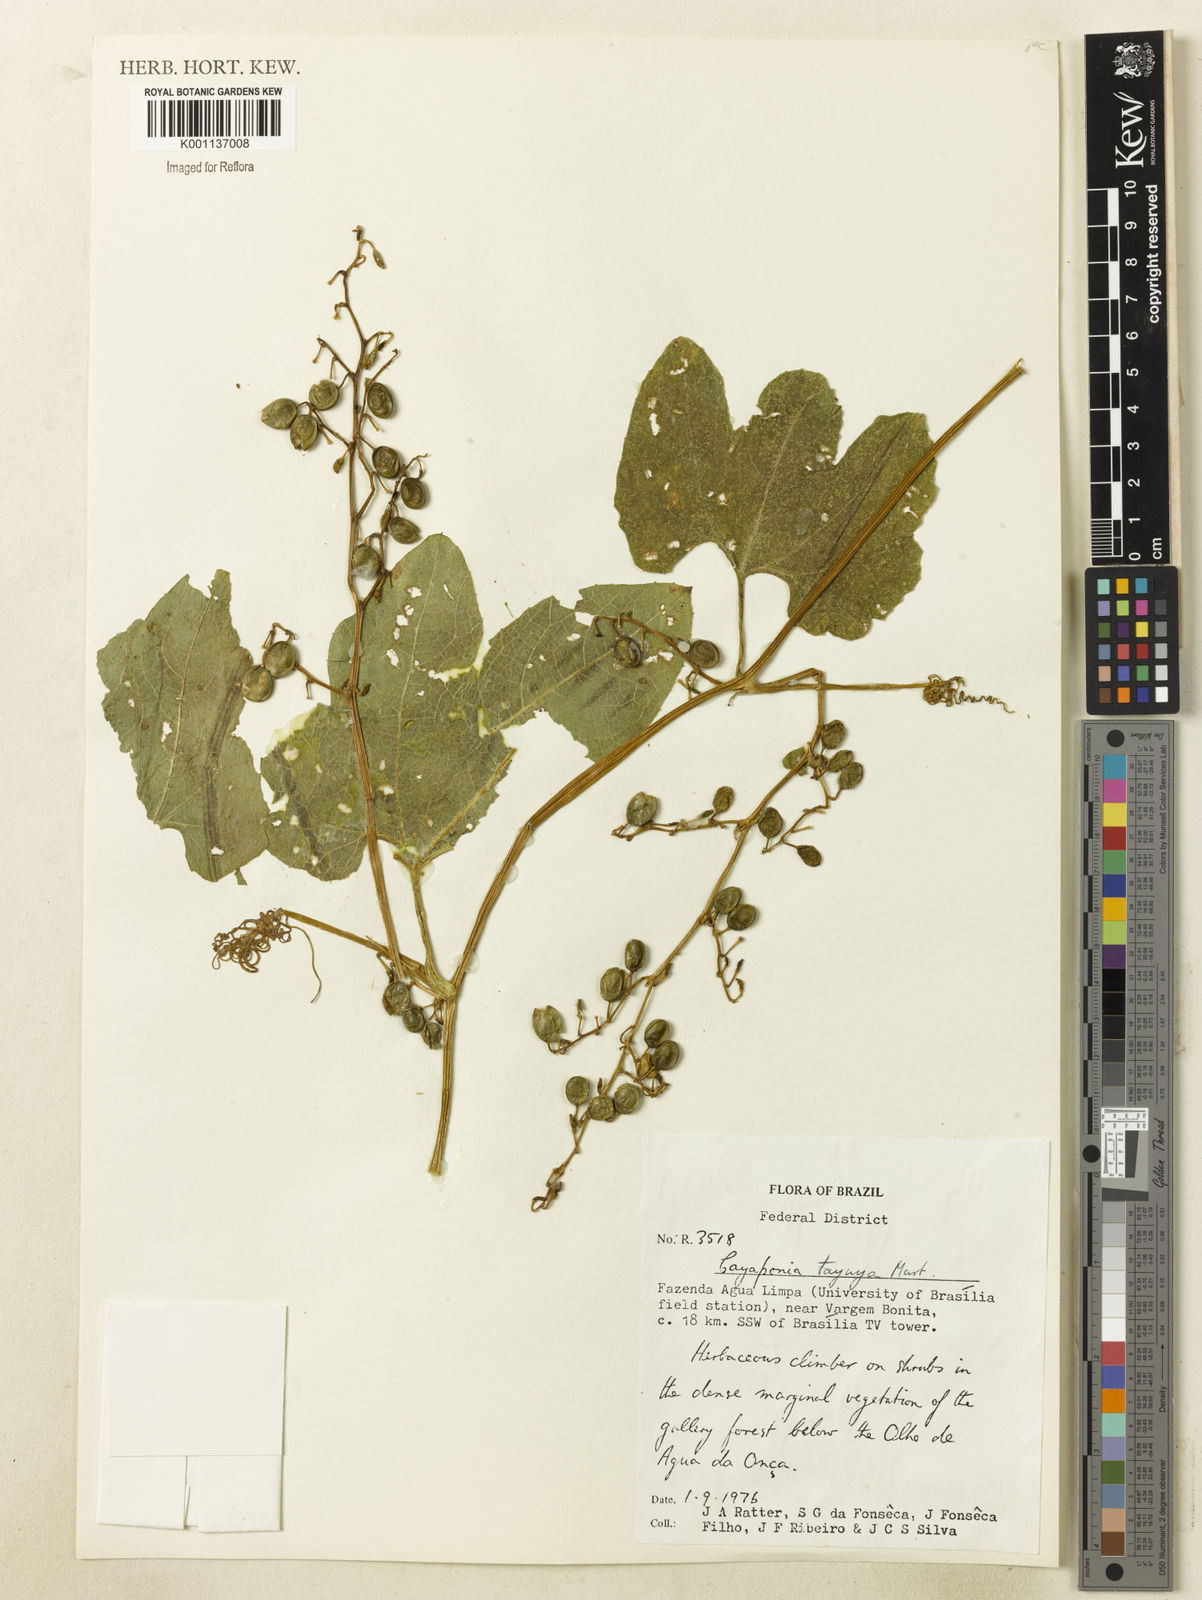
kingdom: Plantae
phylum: Tracheophyta
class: Magnoliopsida
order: Cucurbitales
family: Cucurbitaceae
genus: Cayaponia
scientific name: Cayaponia diversifolia
